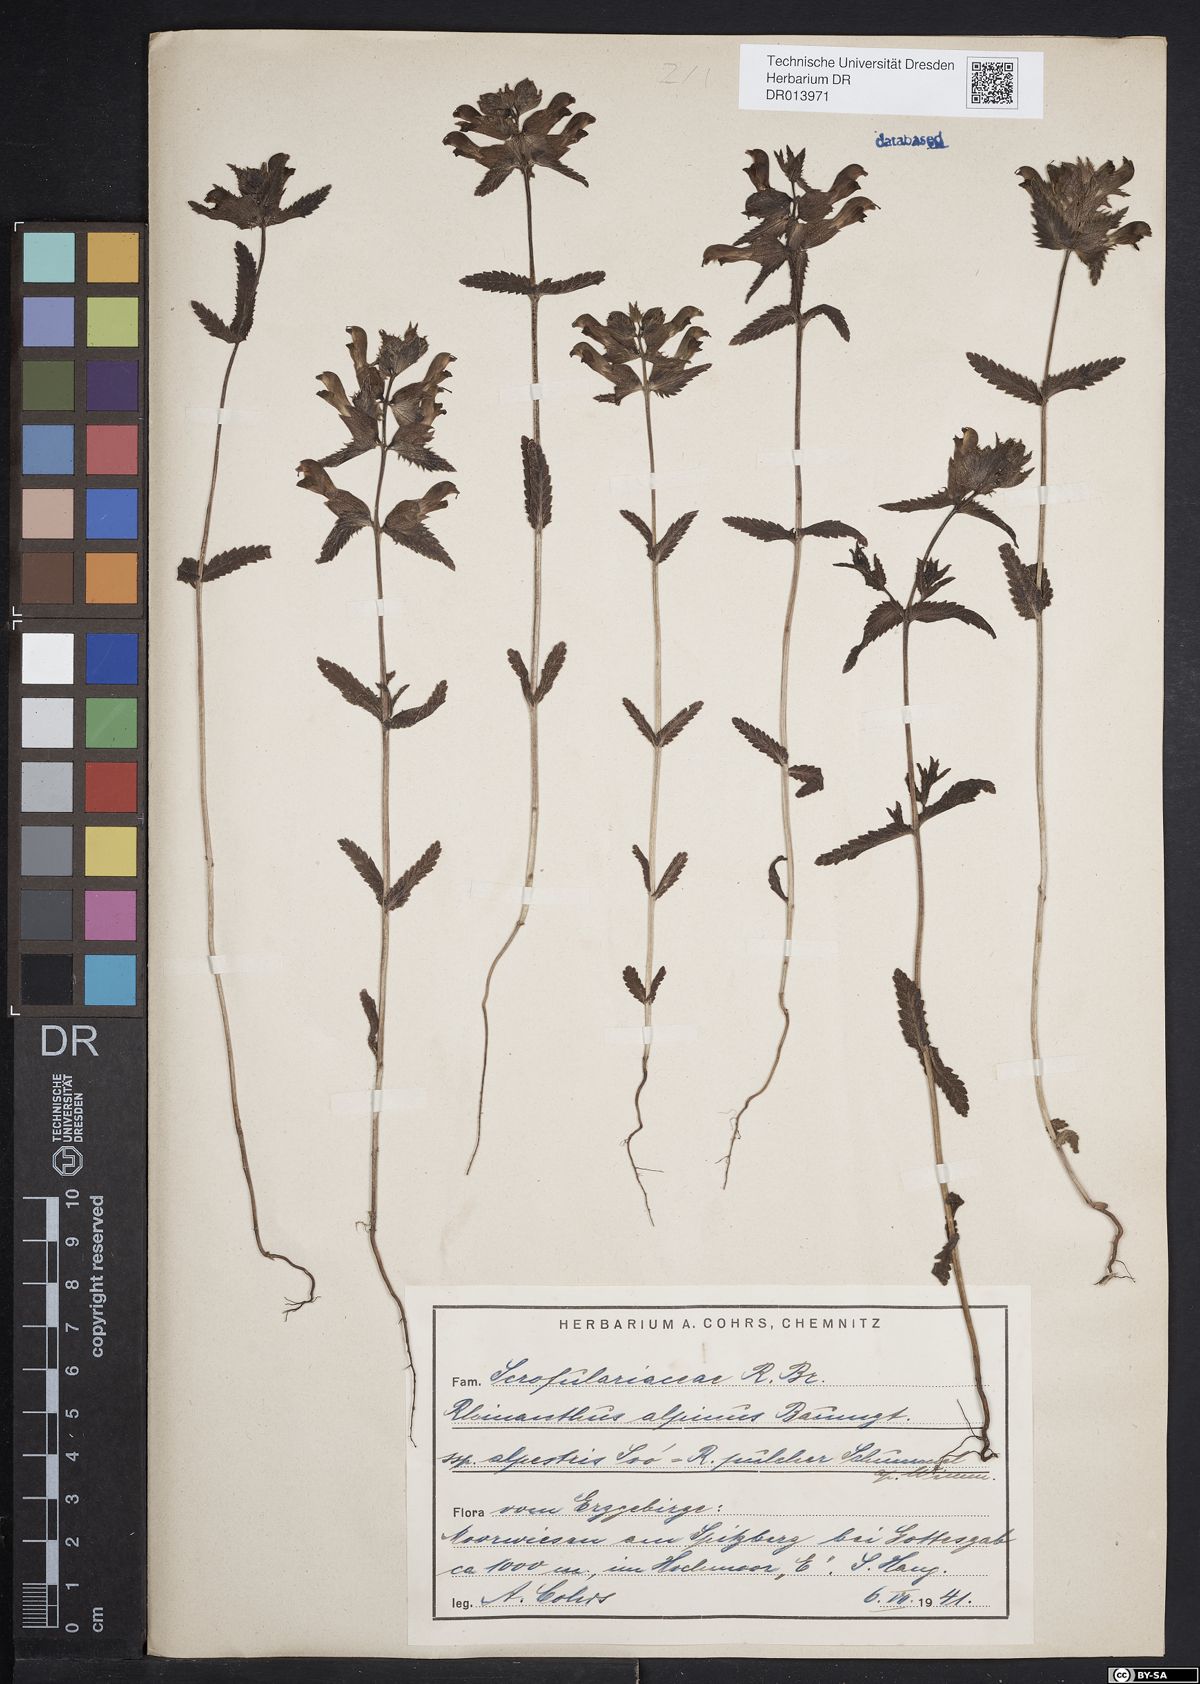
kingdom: Plantae
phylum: Tracheophyta
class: Magnoliopsida
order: Lamiales
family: Orobanchaceae
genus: Rhinanthus
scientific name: Rhinanthus riphaeus
